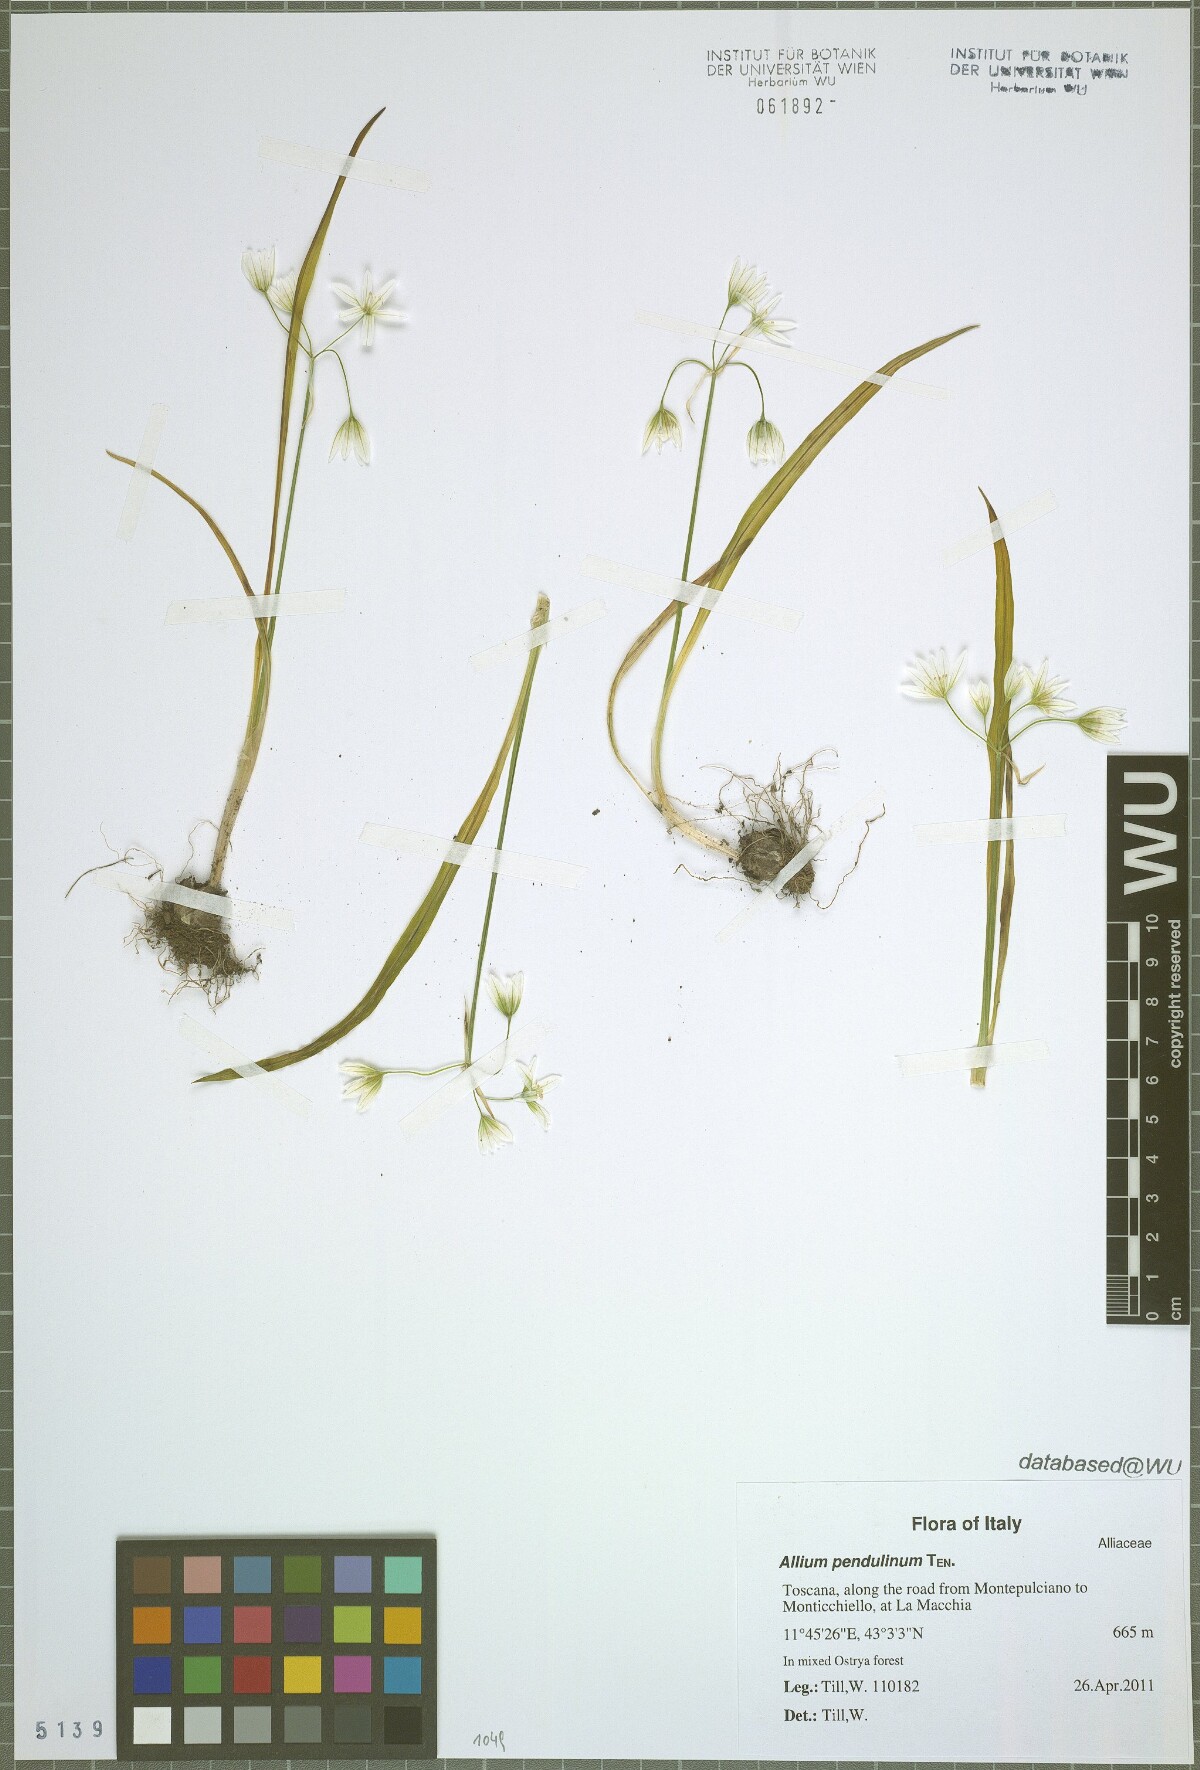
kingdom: Plantae
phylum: Tracheophyta
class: Liliopsida
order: Asparagales
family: Amaryllidaceae
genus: Allium
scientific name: Allium pendulinum
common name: Italian garlic
